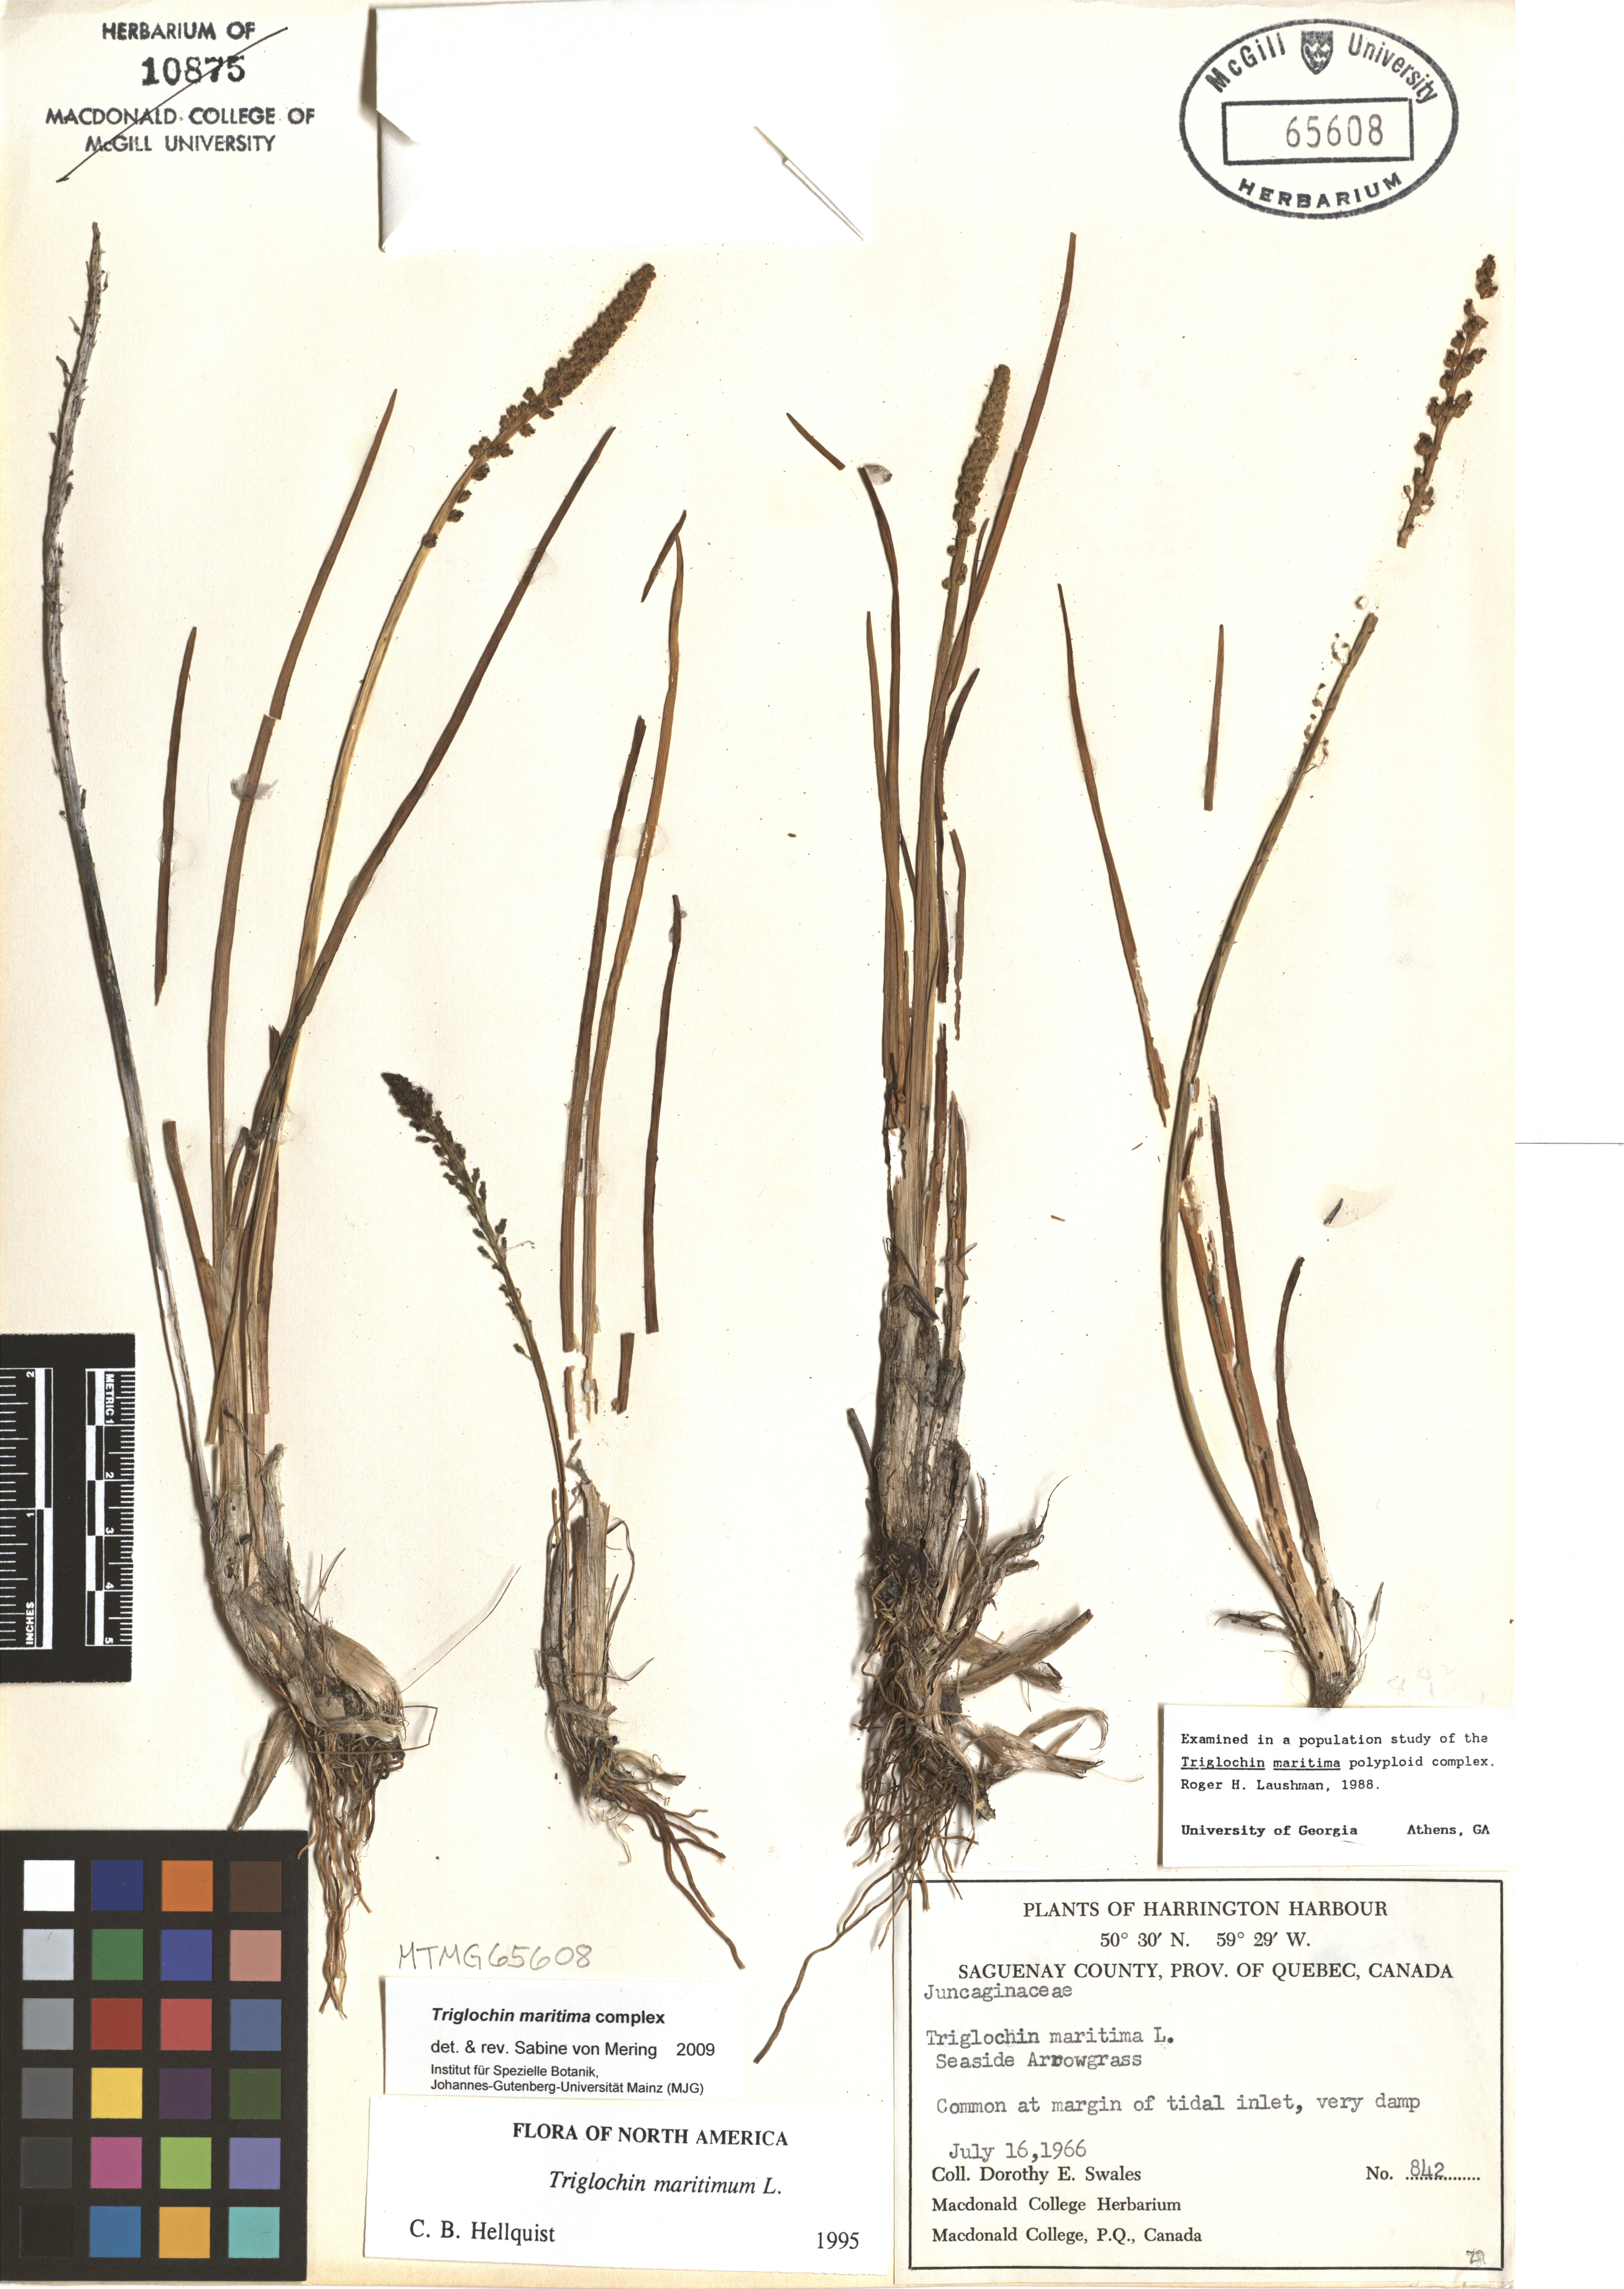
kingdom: Plantae
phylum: Tracheophyta
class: Liliopsida
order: Alismatales
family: Juncaginaceae
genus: Triglochin
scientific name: Triglochin maritima
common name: Sea arrowgrass
